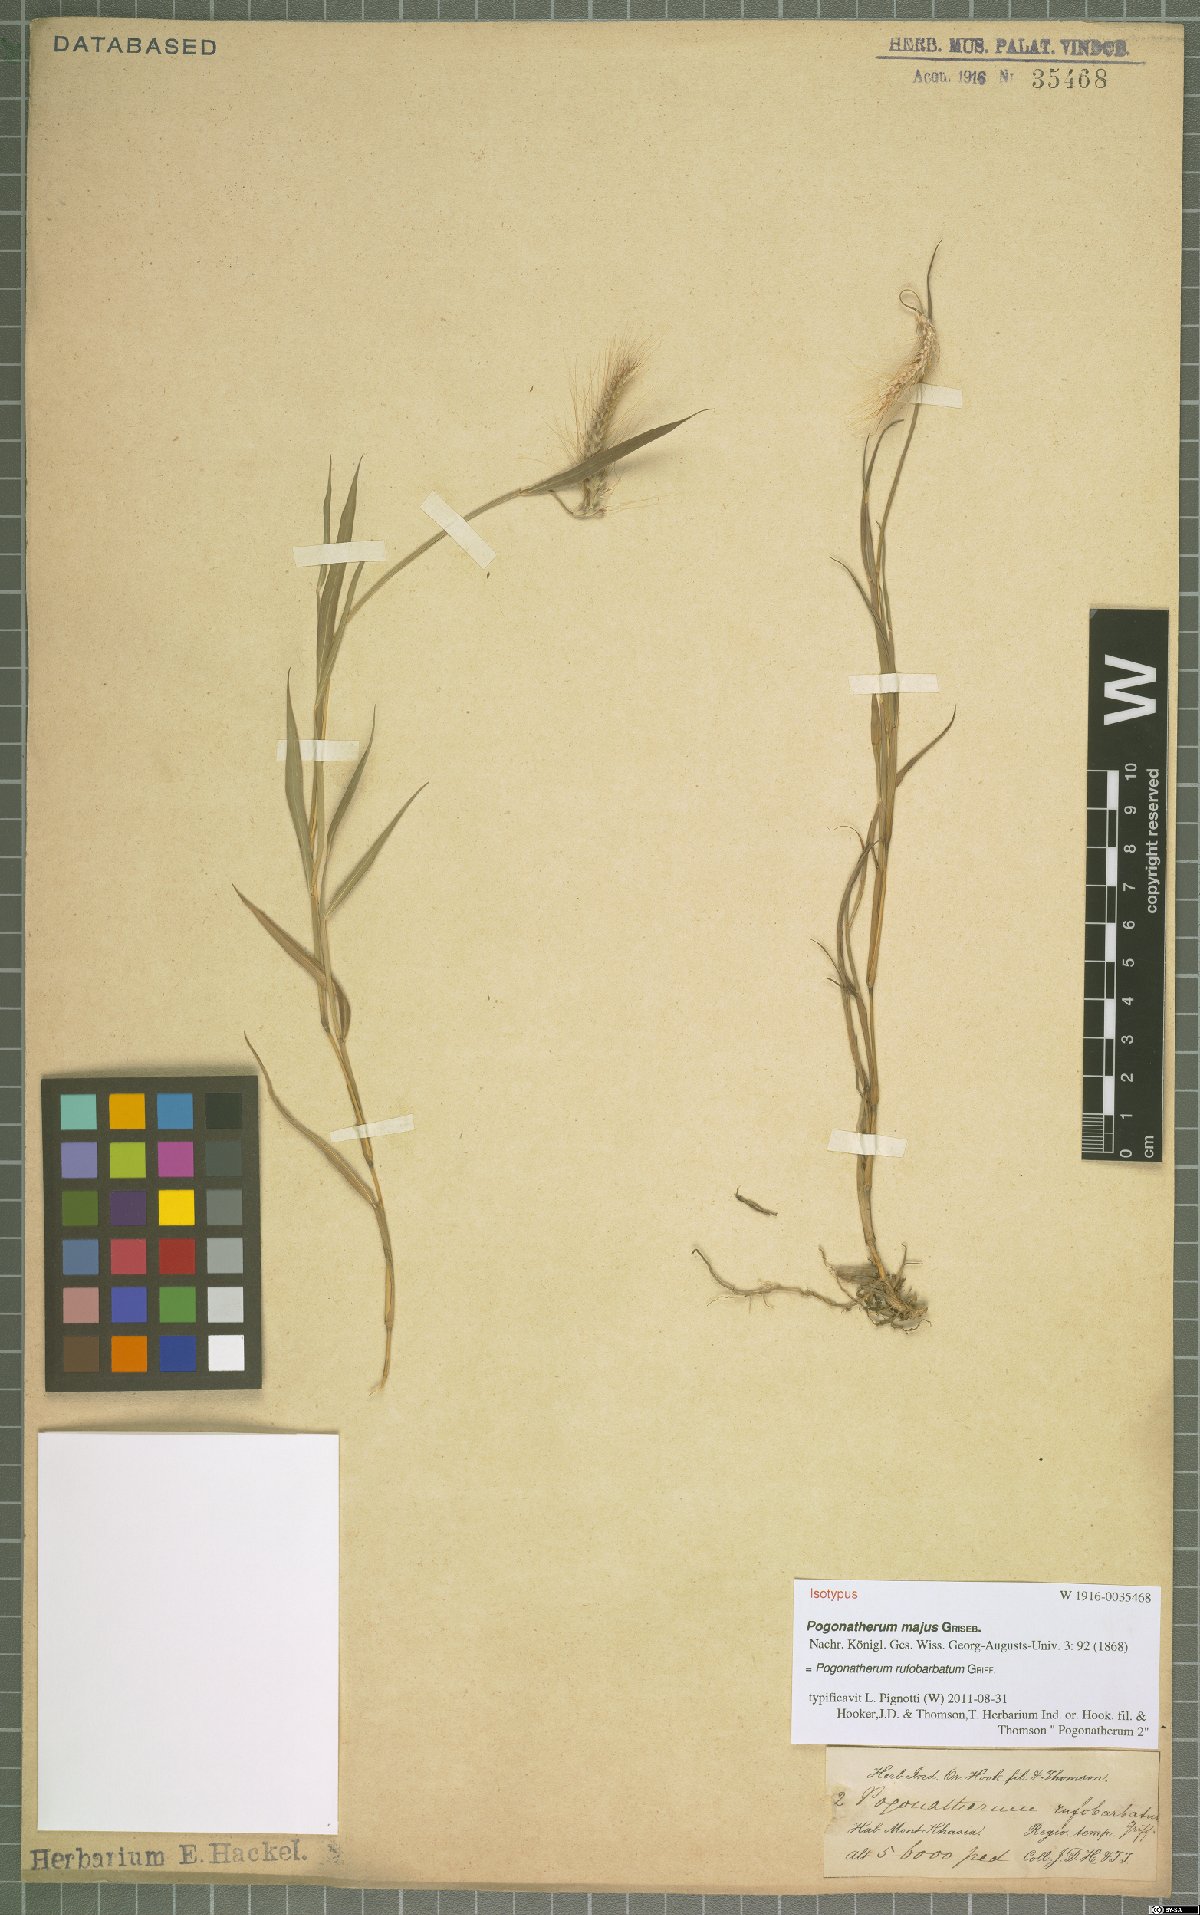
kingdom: Plantae
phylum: Tracheophyta
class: Liliopsida
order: Poales
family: Poaceae
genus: Pogonatherum
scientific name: Pogonatherum rufobarbatum
